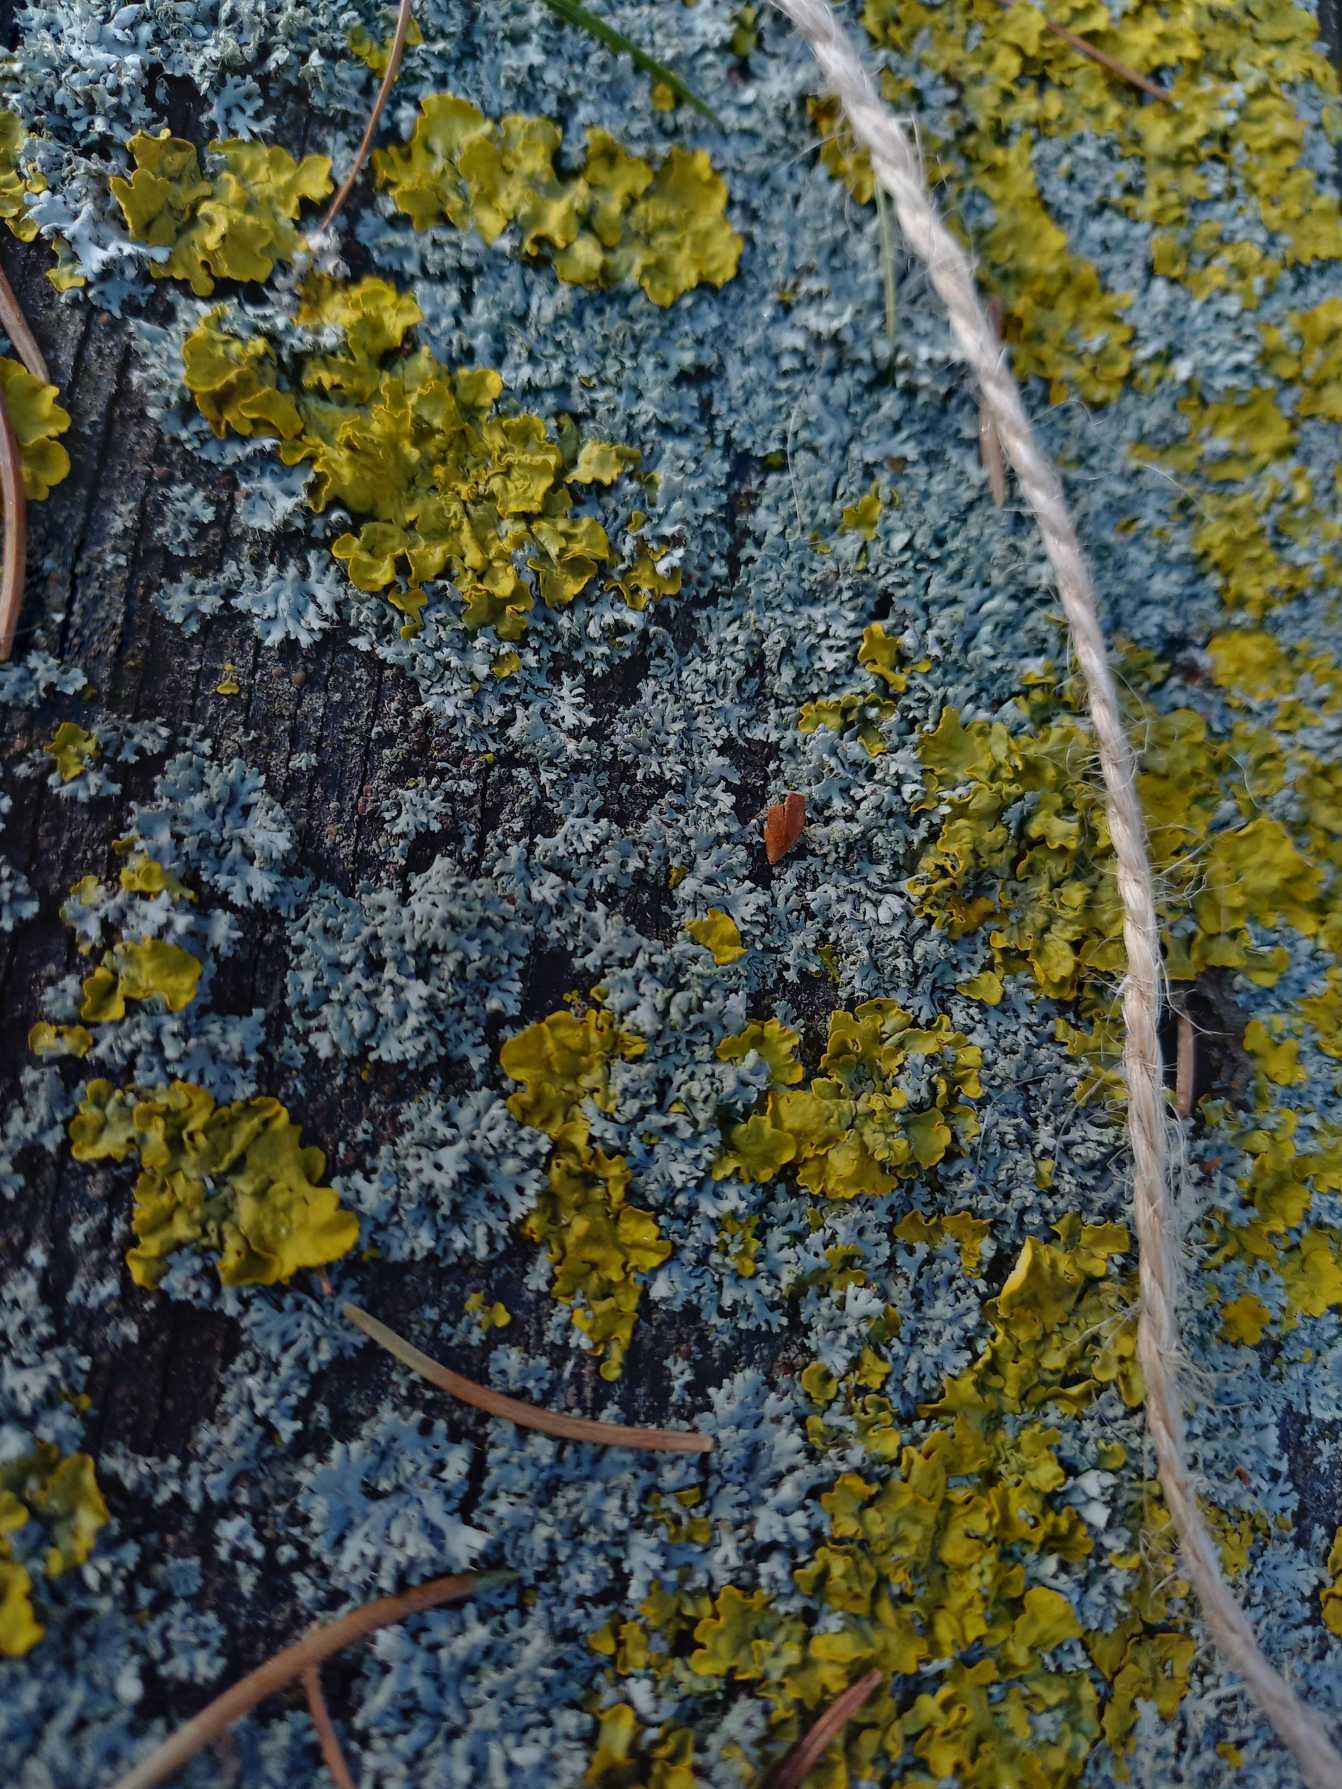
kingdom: Fungi
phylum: Ascomycota
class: Lecanoromycetes
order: Teloschistales
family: Teloschistaceae
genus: Xanthoria
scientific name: Xanthoria parietina
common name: Almindelig væggelav
